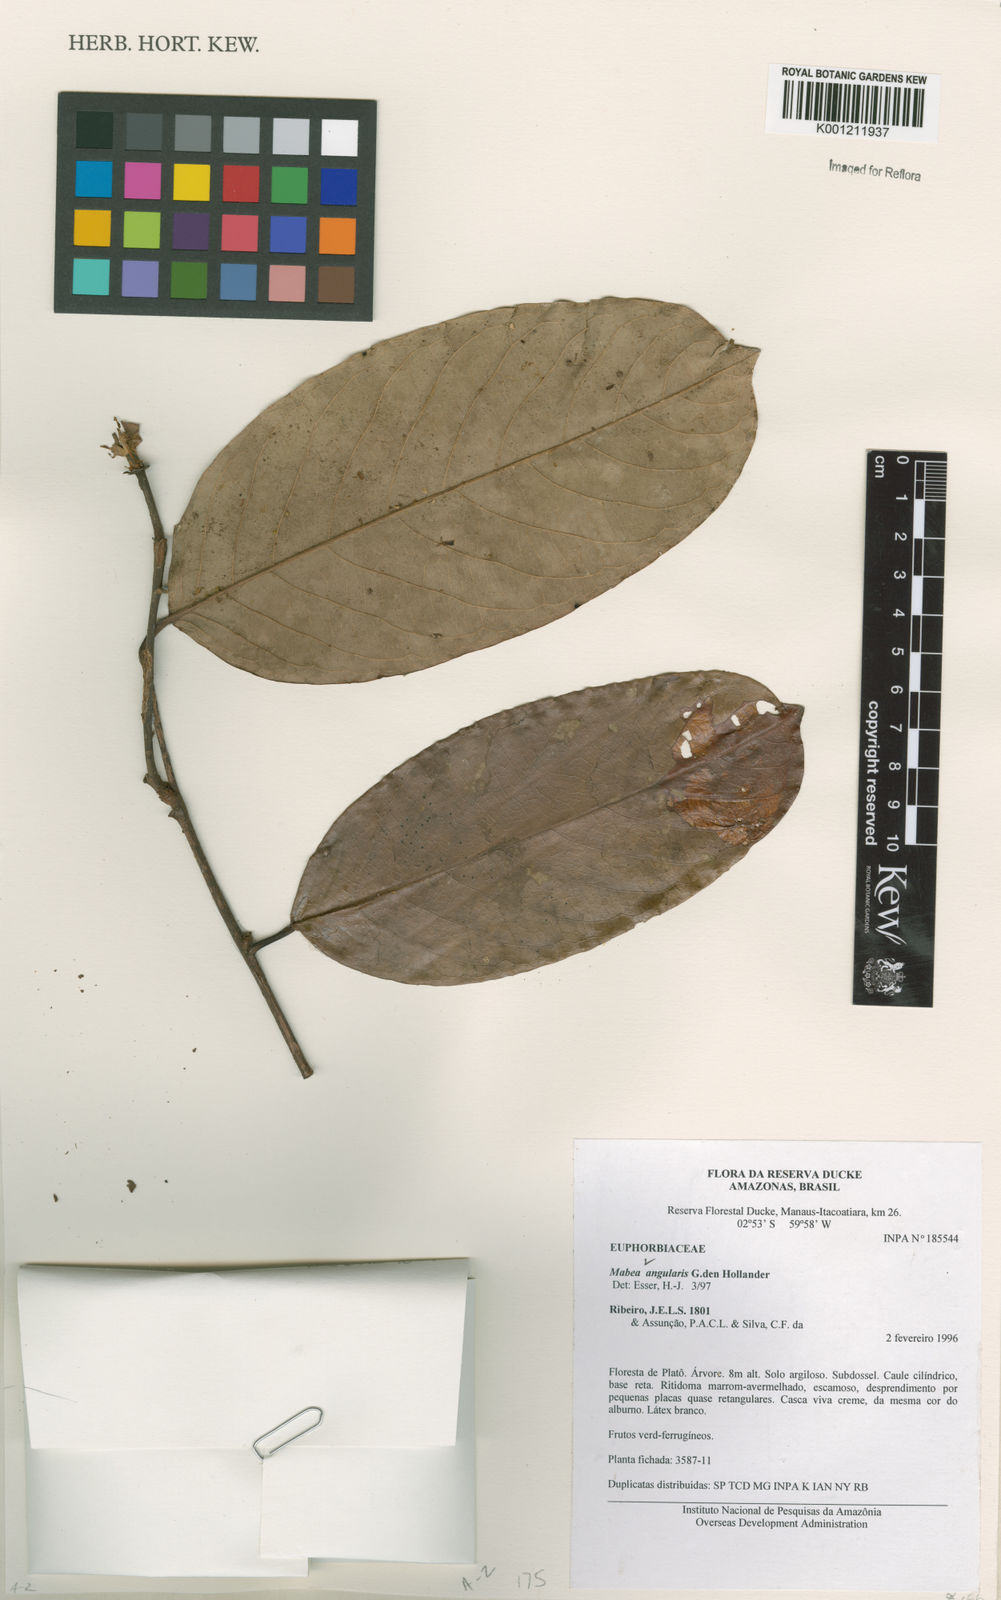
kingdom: Plantae
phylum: Tracheophyta
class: Magnoliopsida
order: Malpighiales
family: Euphorbiaceae
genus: Mabea
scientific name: Mabea angularis
